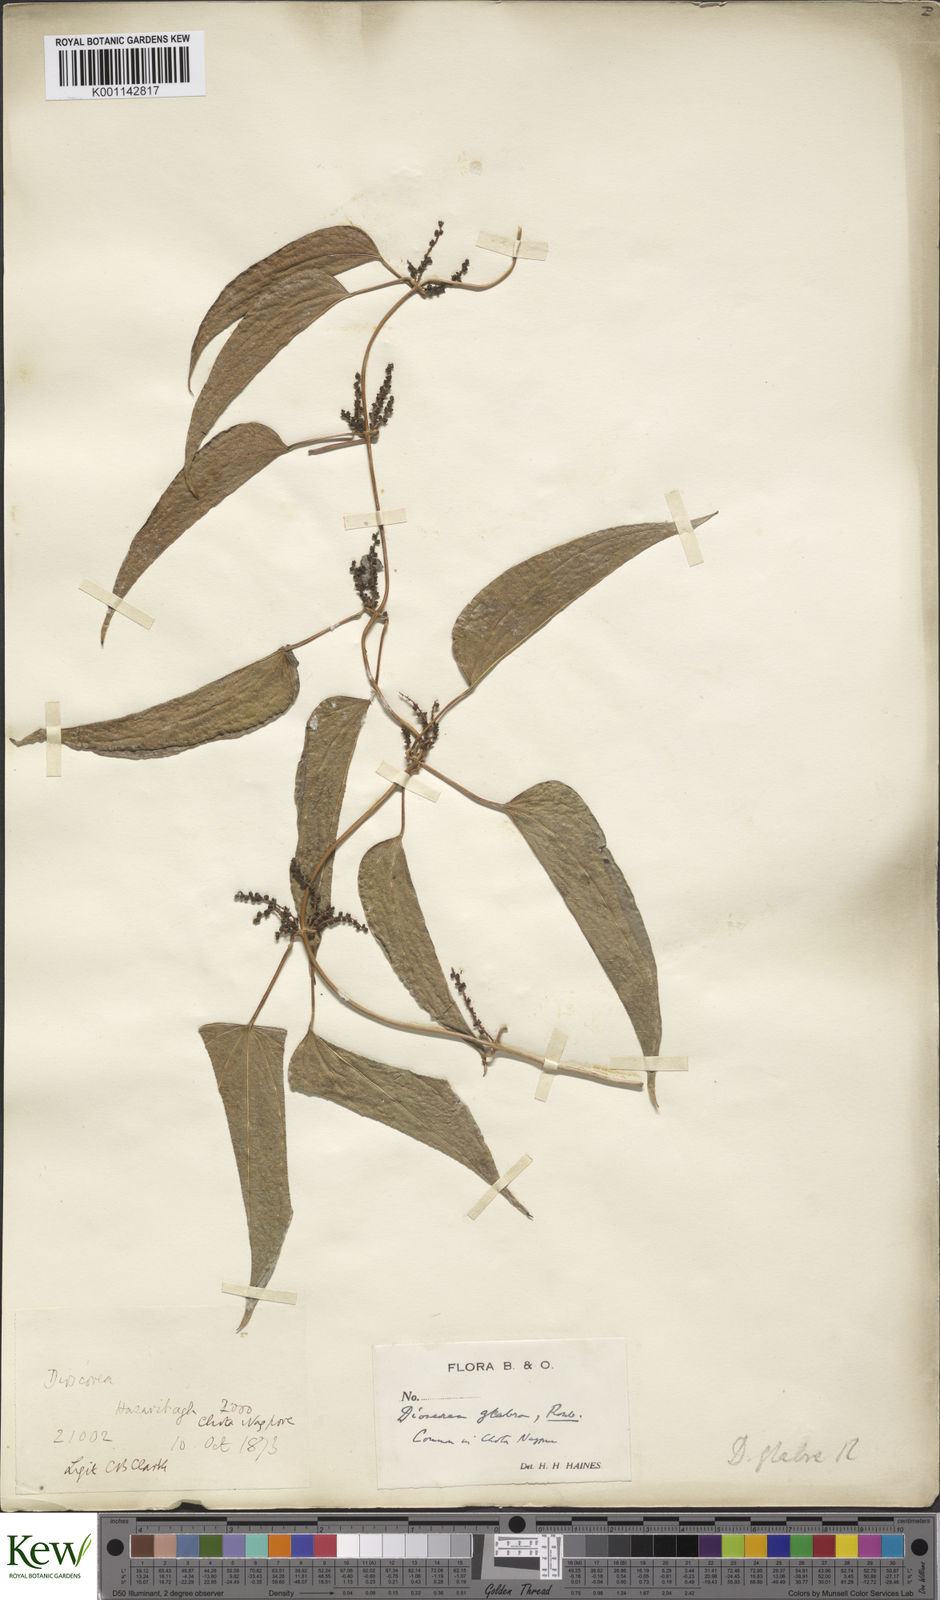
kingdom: Plantae
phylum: Tracheophyta
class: Liliopsida
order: Dioscoreales
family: Dioscoreaceae
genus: Dioscorea
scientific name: Dioscorea
